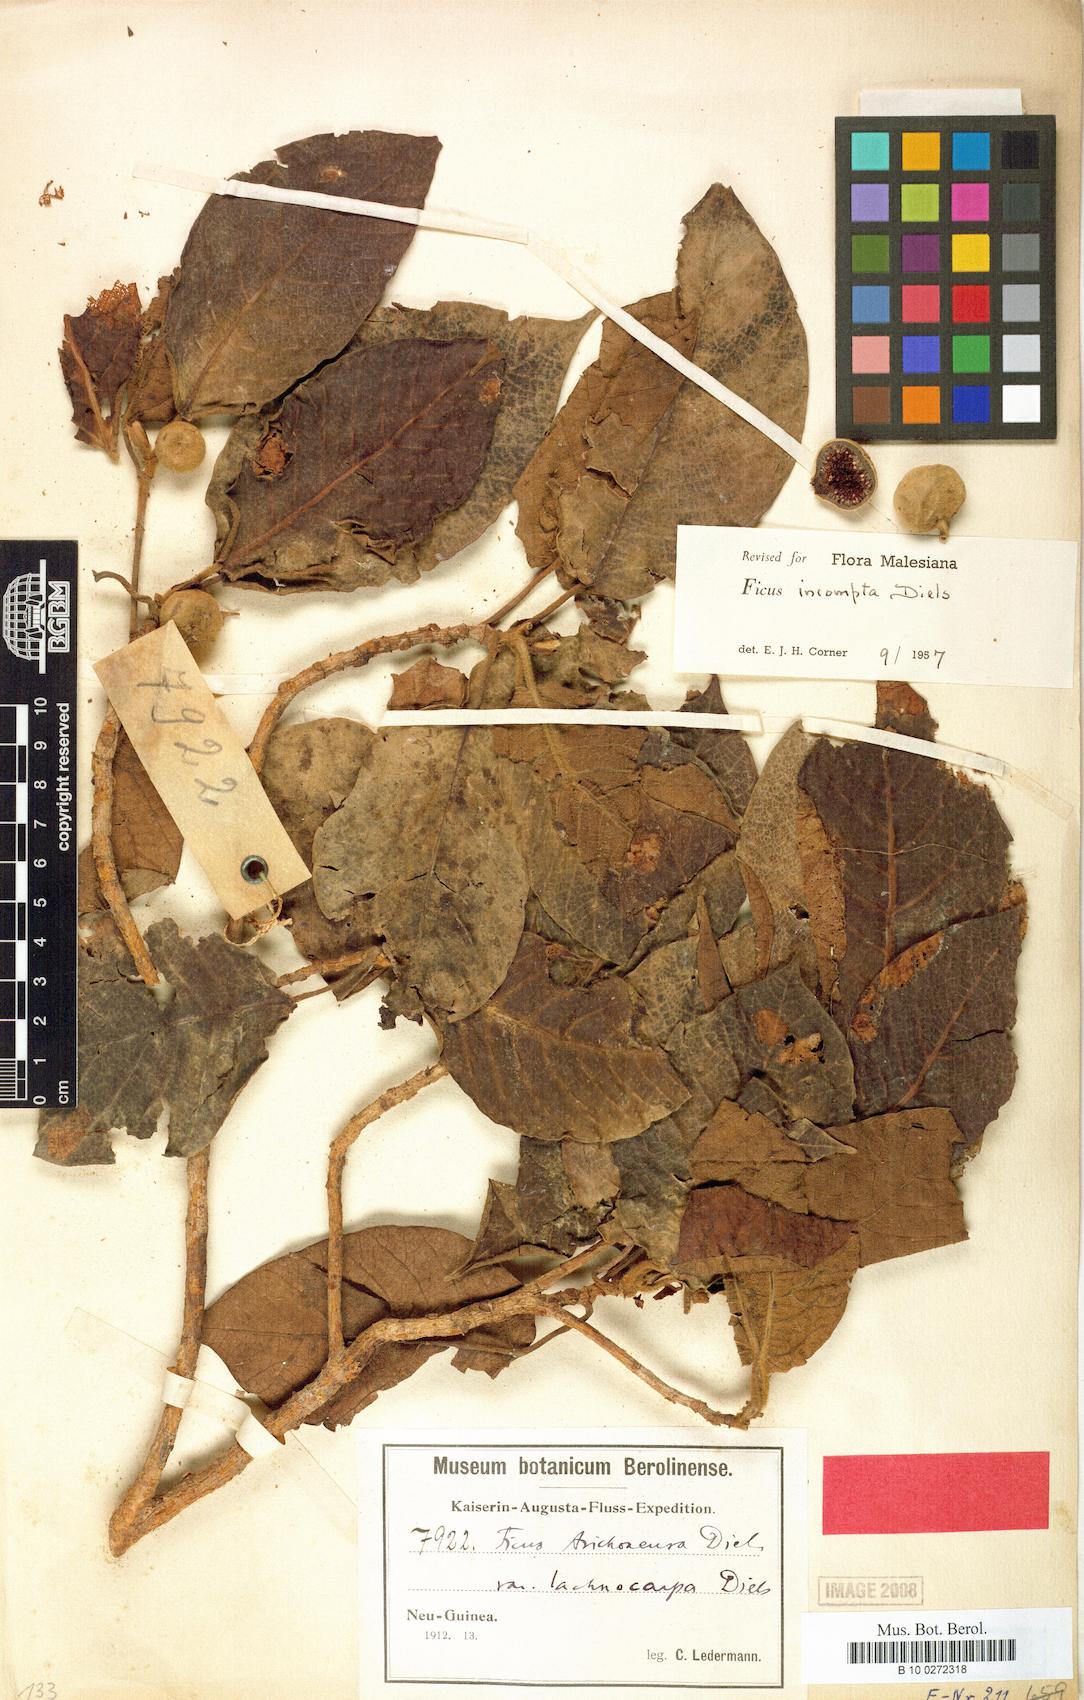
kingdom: Plantae
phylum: Tracheophyta
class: Magnoliopsida
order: Rosales
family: Moraceae
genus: Ficus
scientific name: Ficus trichocerasa
